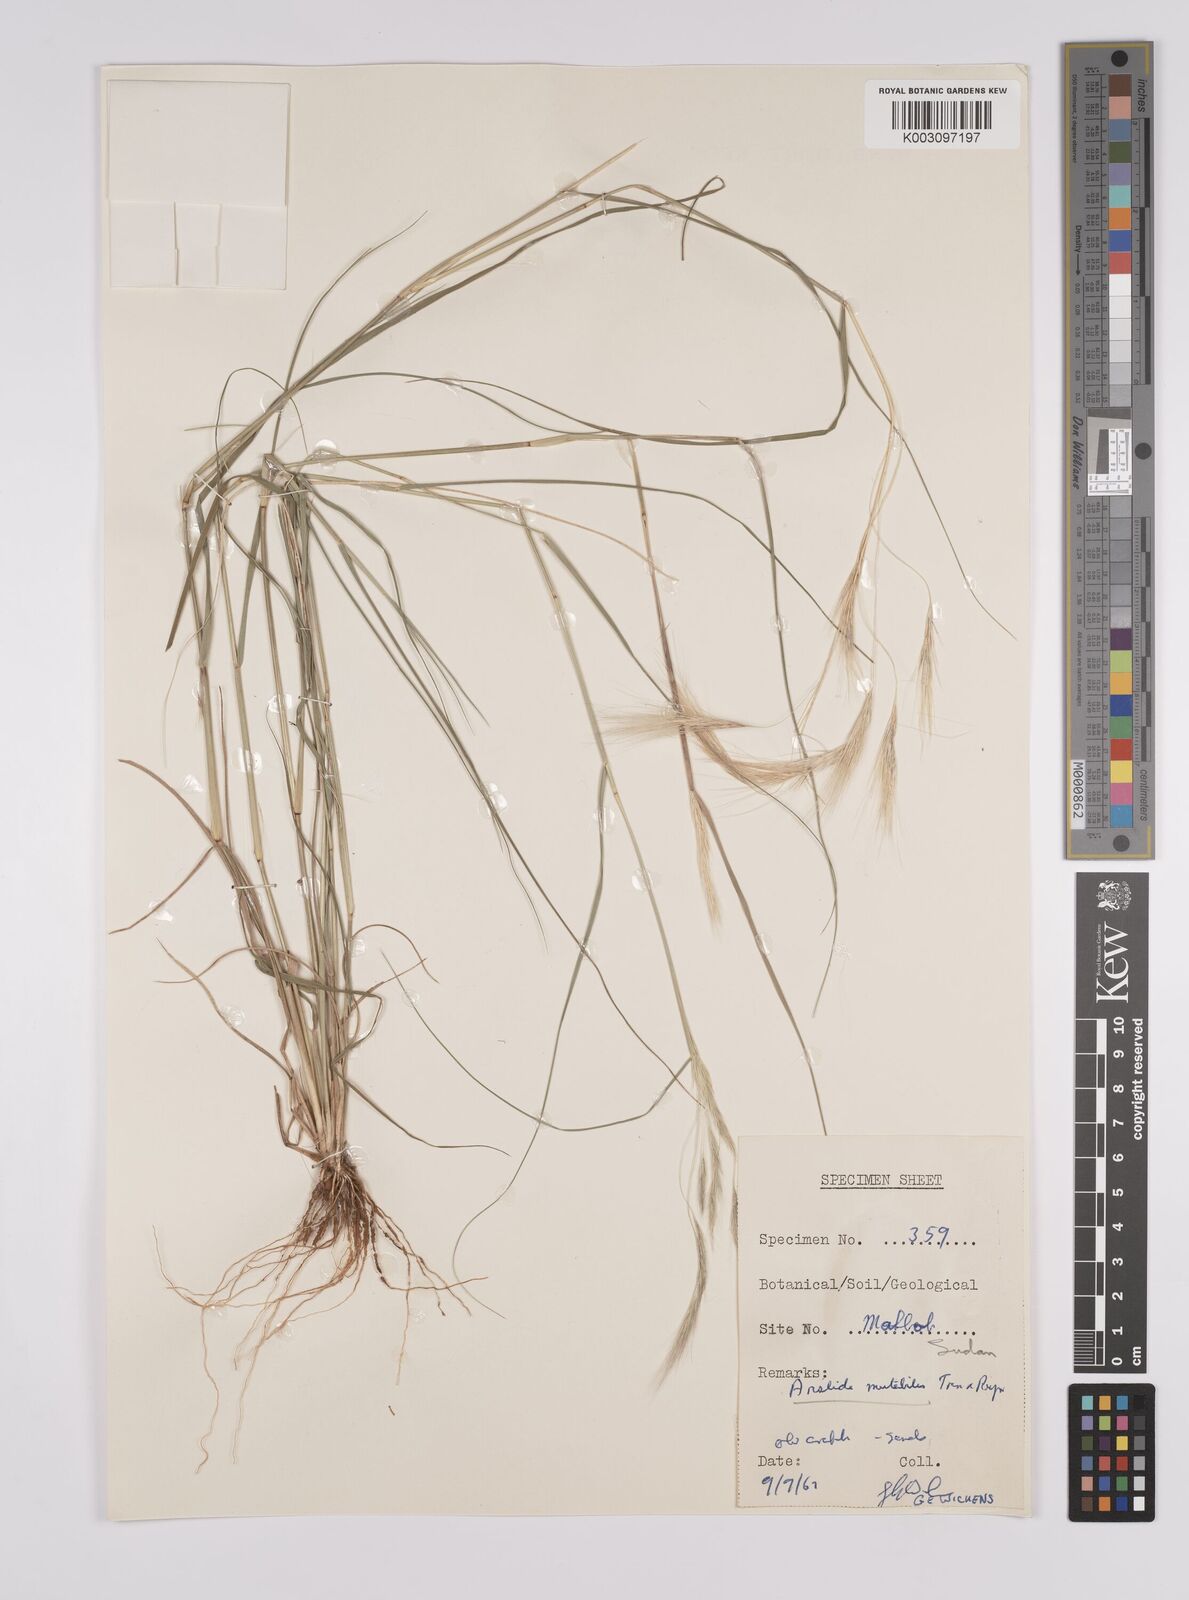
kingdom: Plantae
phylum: Tracheophyta
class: Liliopsida
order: Poales
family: Poaceae
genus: Aristida
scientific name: Aristida mutabilis
